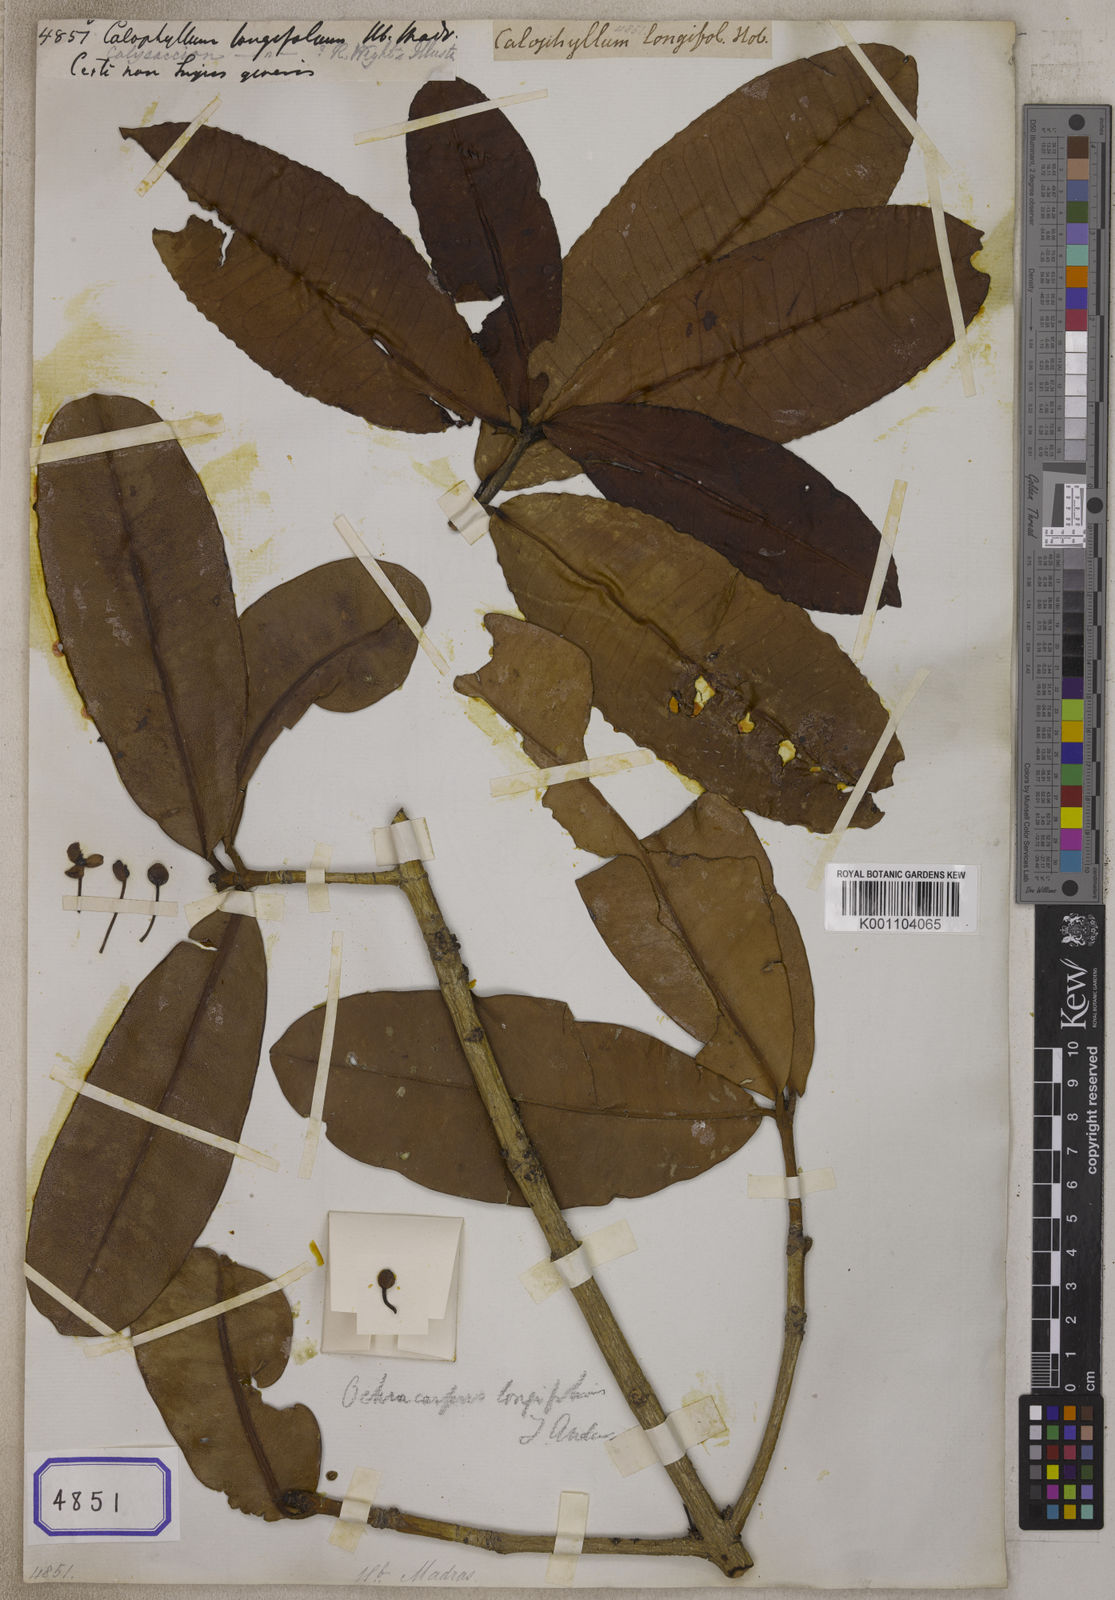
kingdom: Plantae
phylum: Tracheophyta
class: Magnoliopsida
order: Malpighiales
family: Calophyllaceae
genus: Calophyllum
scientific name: Calophyllum
